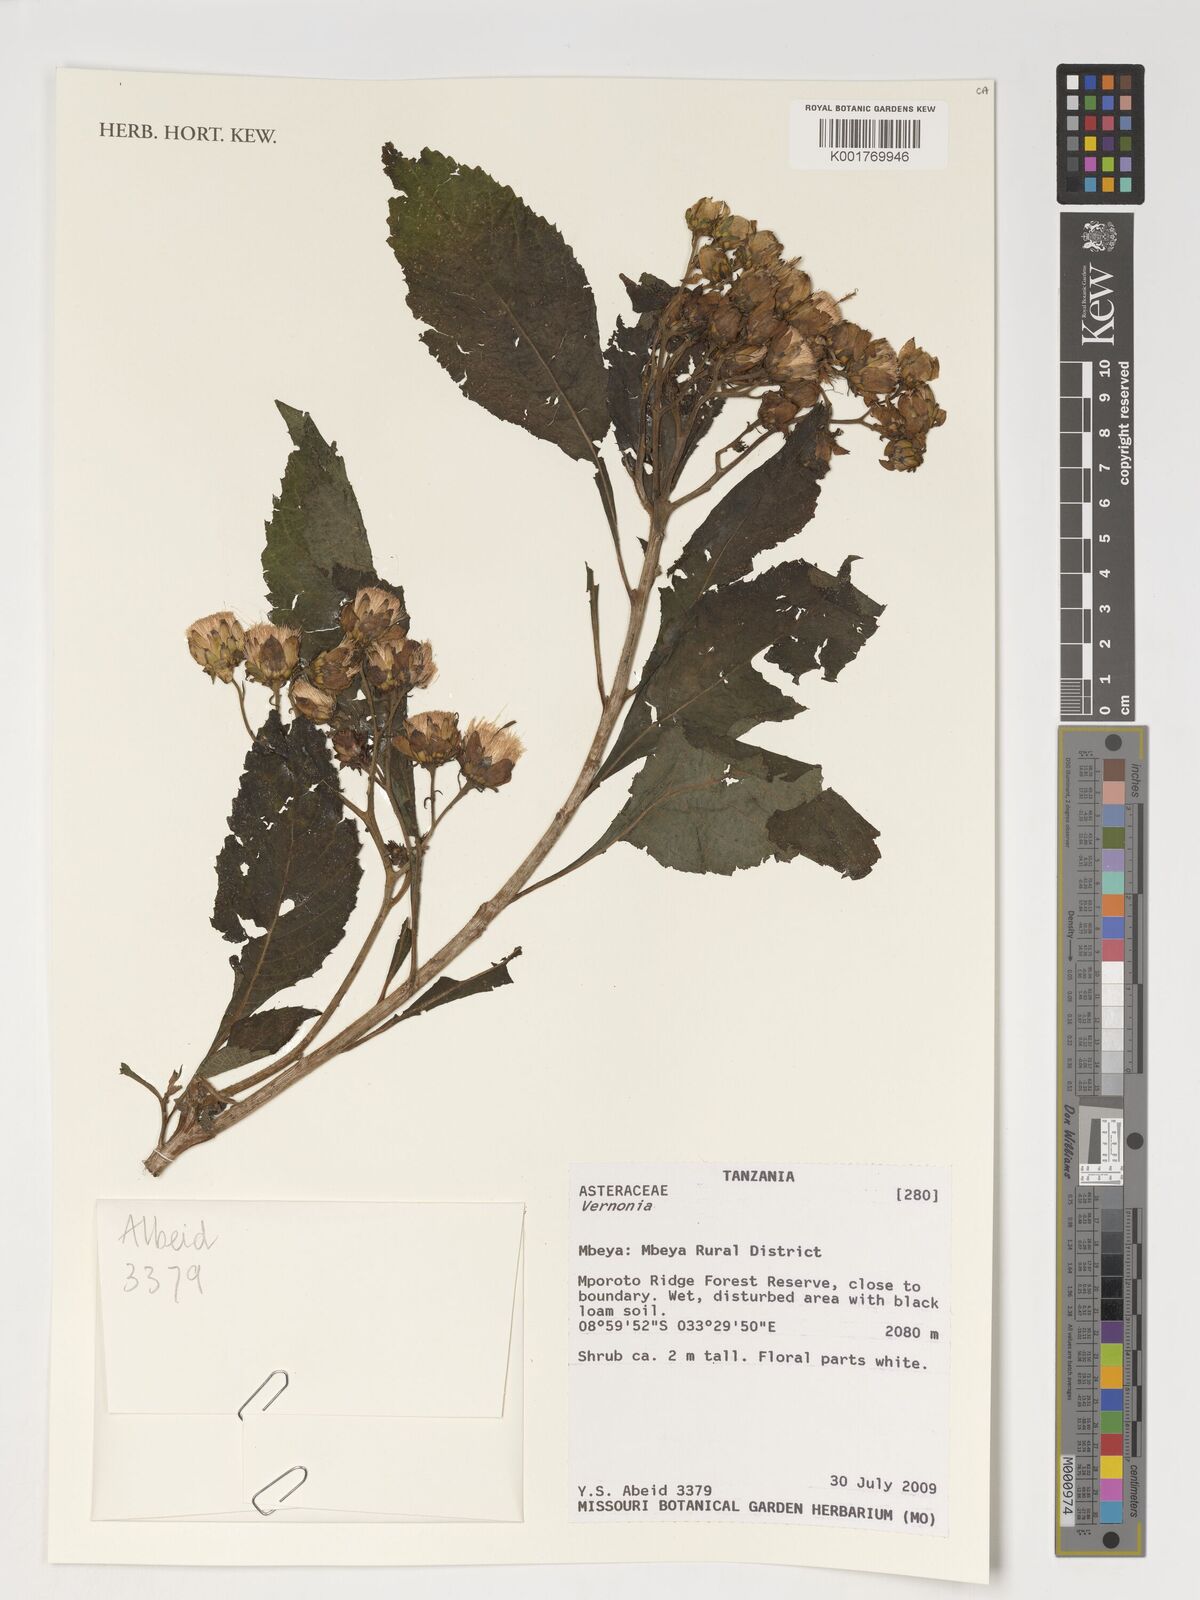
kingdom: Plantae
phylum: Tracheophyta
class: Magnoliopsida
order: Asterales
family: Asteraceae
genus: Vernonia
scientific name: Vernonia
